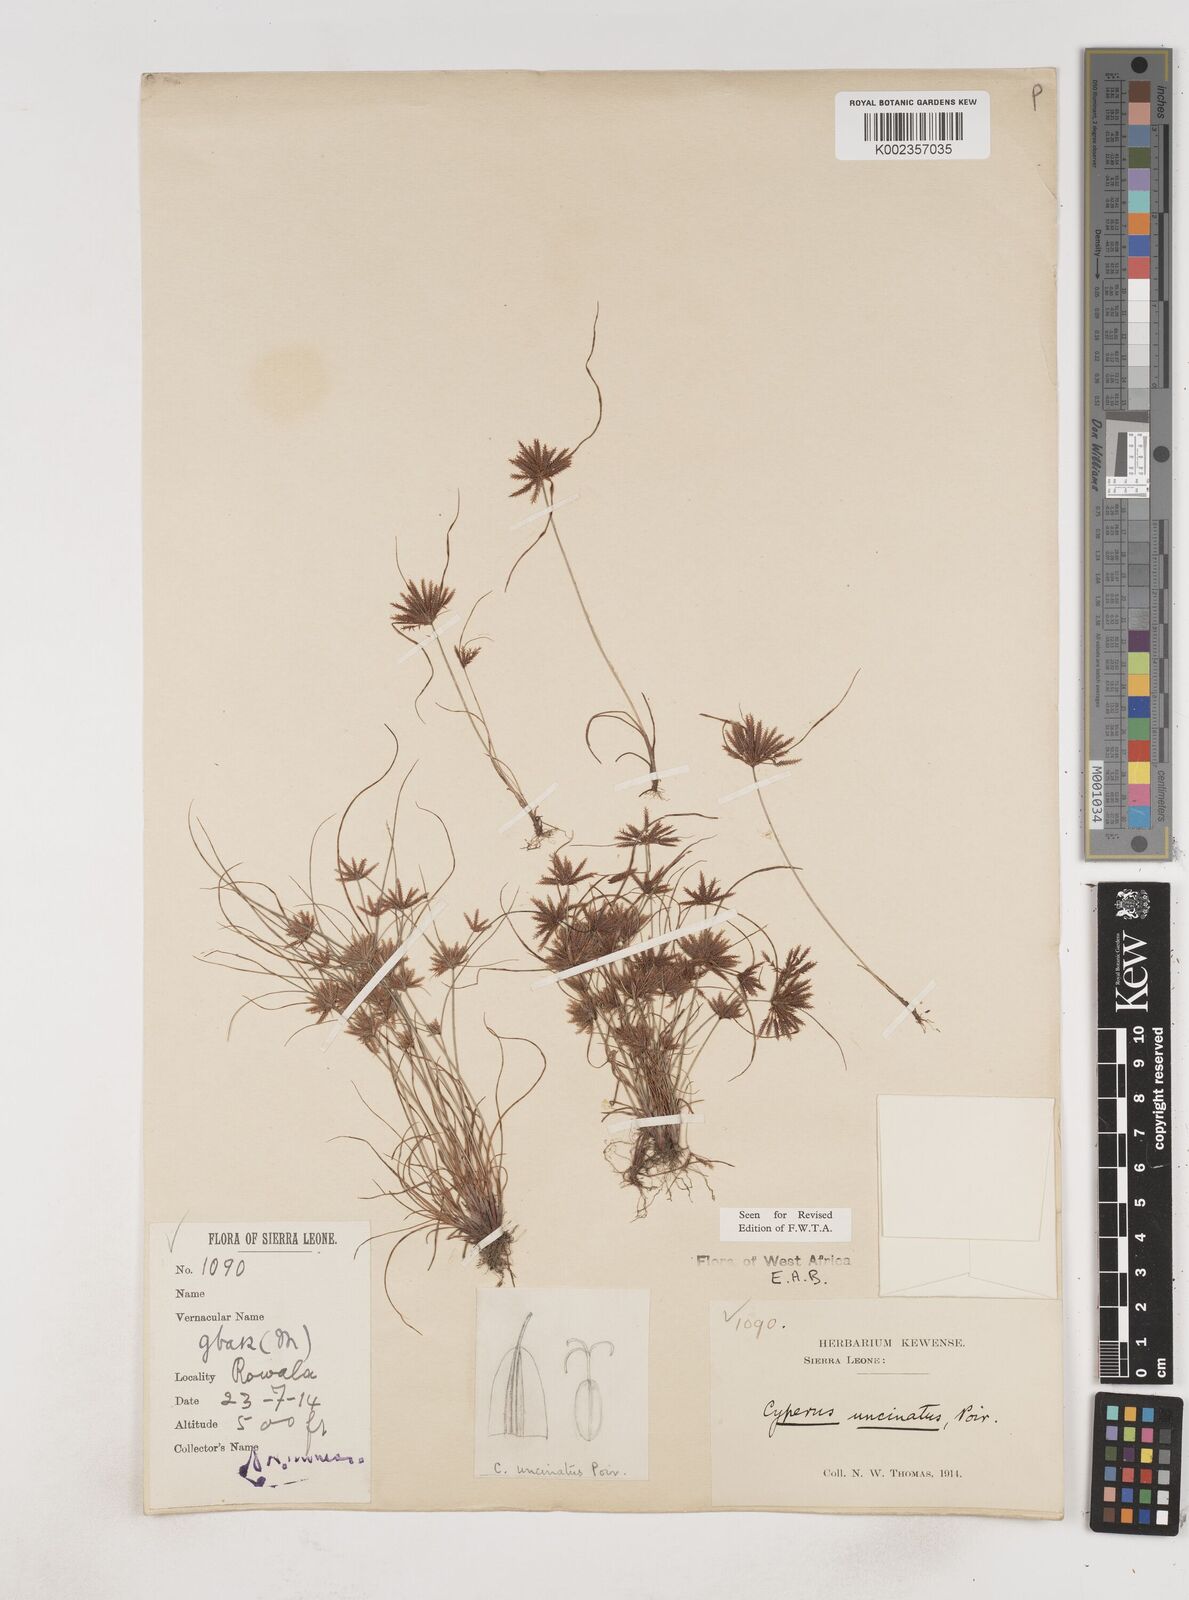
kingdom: Plantae
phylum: Tracheophyta
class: Liliopsida
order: Poales
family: Cyperaceae
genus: Cyperus
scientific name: Cyperus
